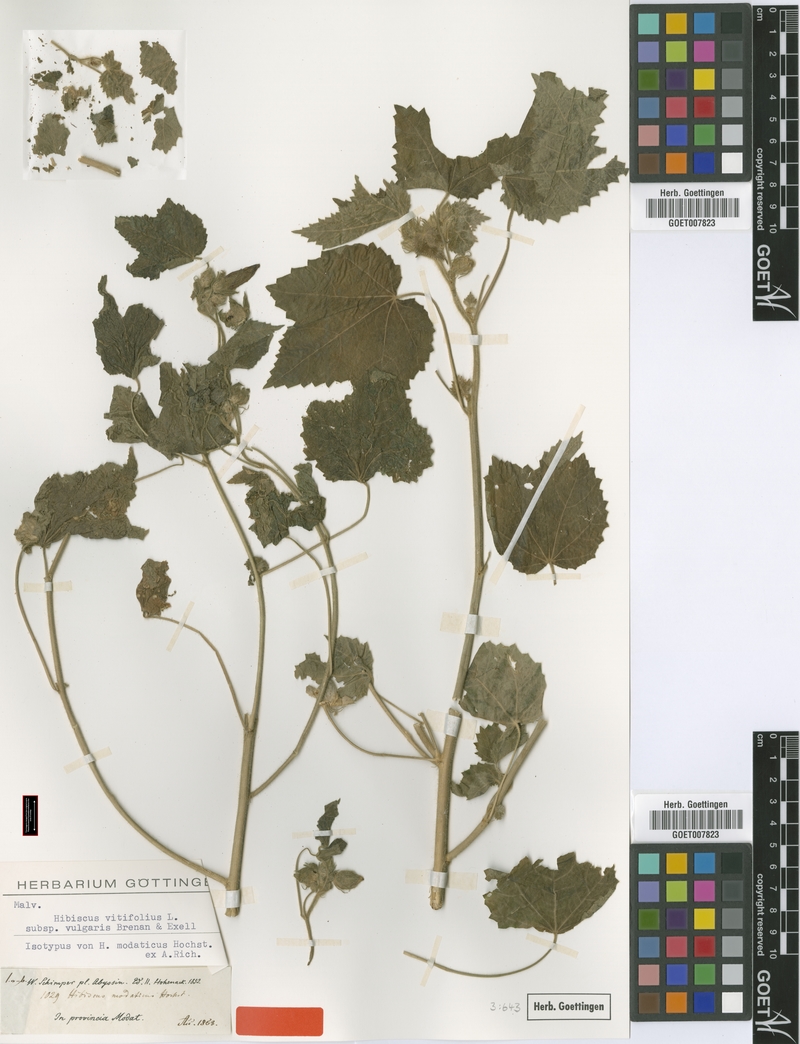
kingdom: Plantae
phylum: Tracheophyta
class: Magnoliopsida
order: Malvales
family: Malvaceae
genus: Hibiscus
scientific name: Hibiscus vitifolius
